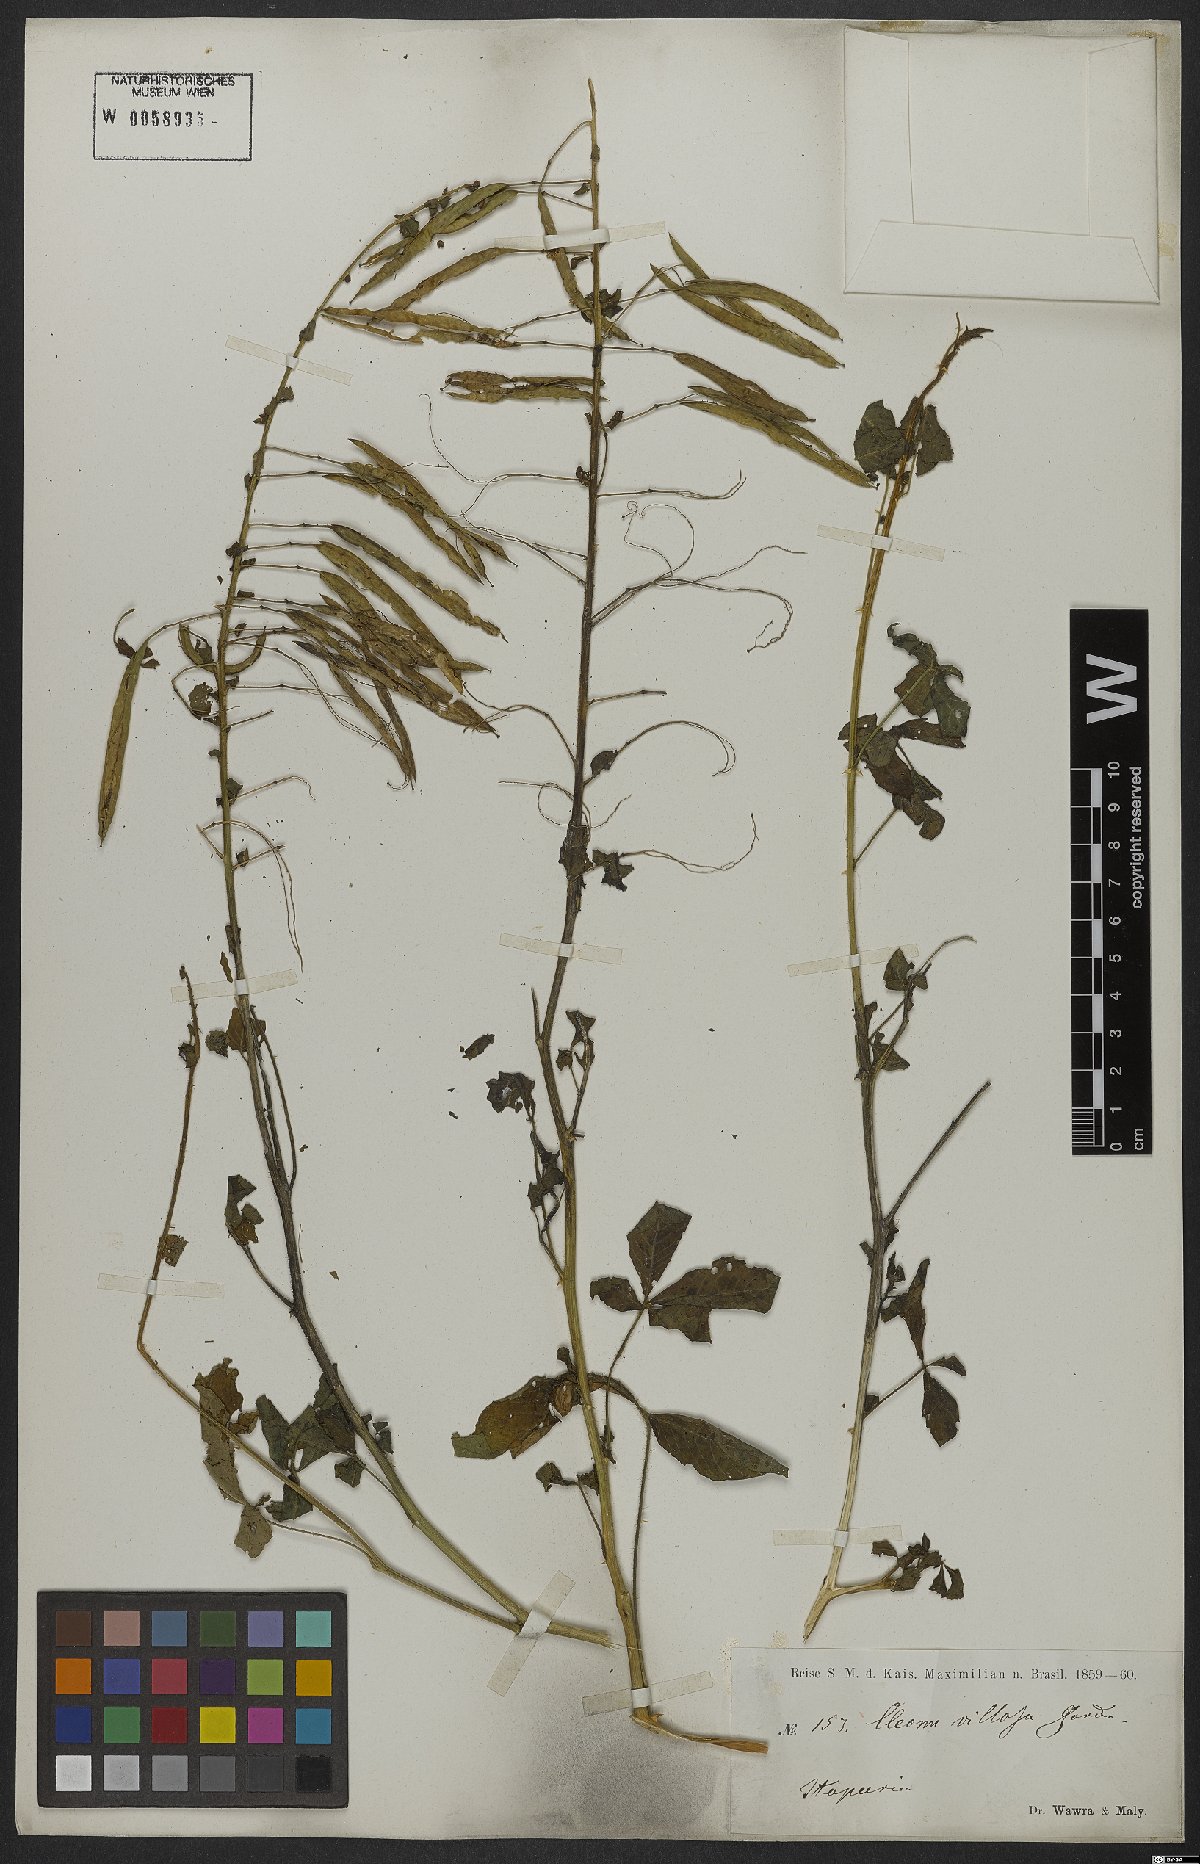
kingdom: Plantae
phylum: Tracheophyta
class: Magnoliopsida
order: Brassicales
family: Cleomaceae
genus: Tarenaya
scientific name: Tarenaya parviflora
